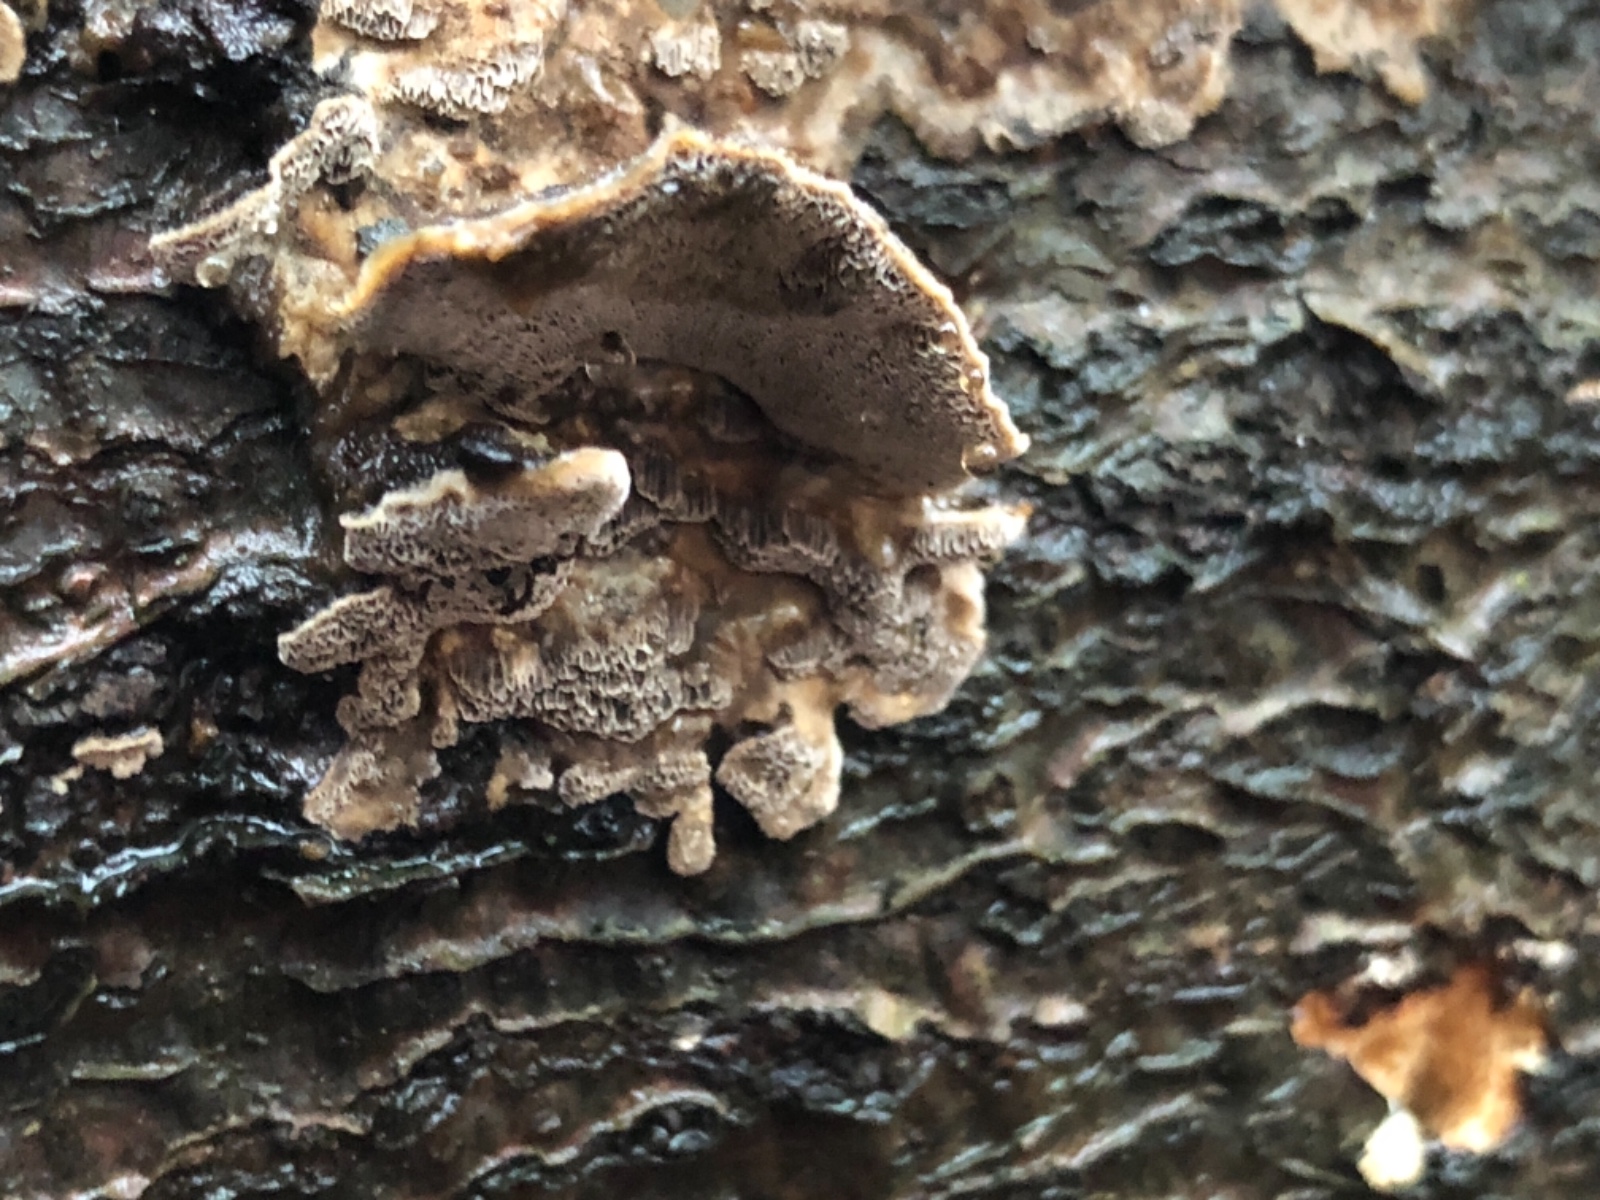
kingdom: Fungi
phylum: Basidiomycota
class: Agaricomycetes
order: Polyporales
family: Phanerochaetaceae
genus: Bjerkandera
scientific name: Bjerkandera adusta
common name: sveden sodporesvamp
